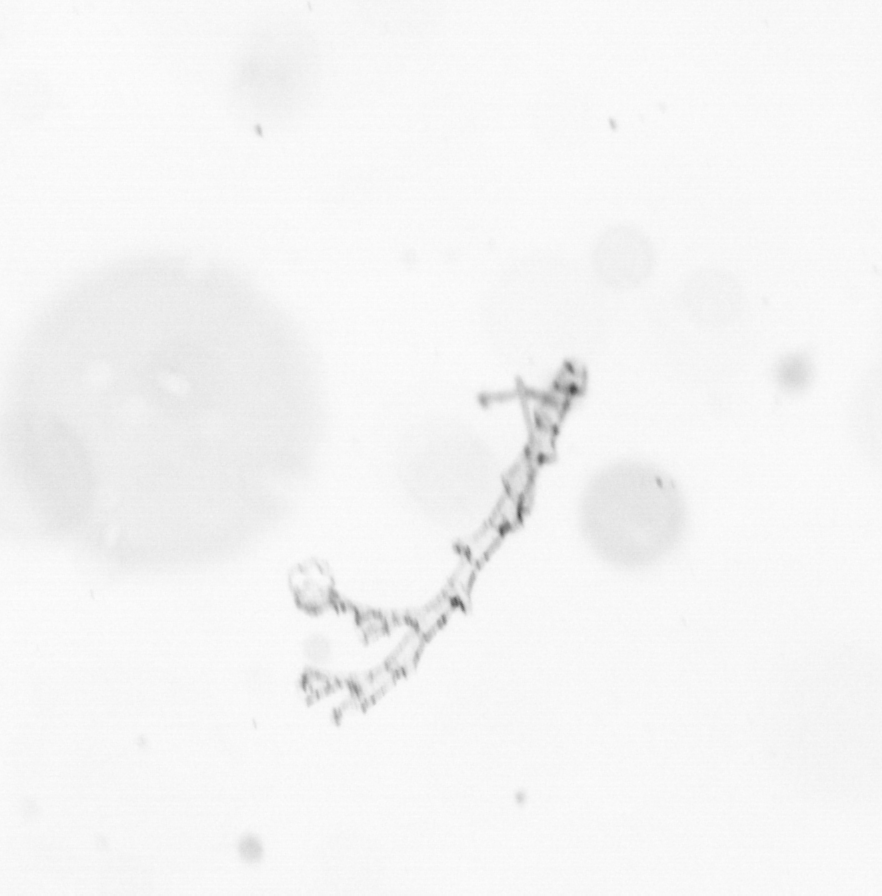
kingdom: Chromista
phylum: Ochrophyta
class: Bacillariophyceae
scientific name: Bacillariophyceae
